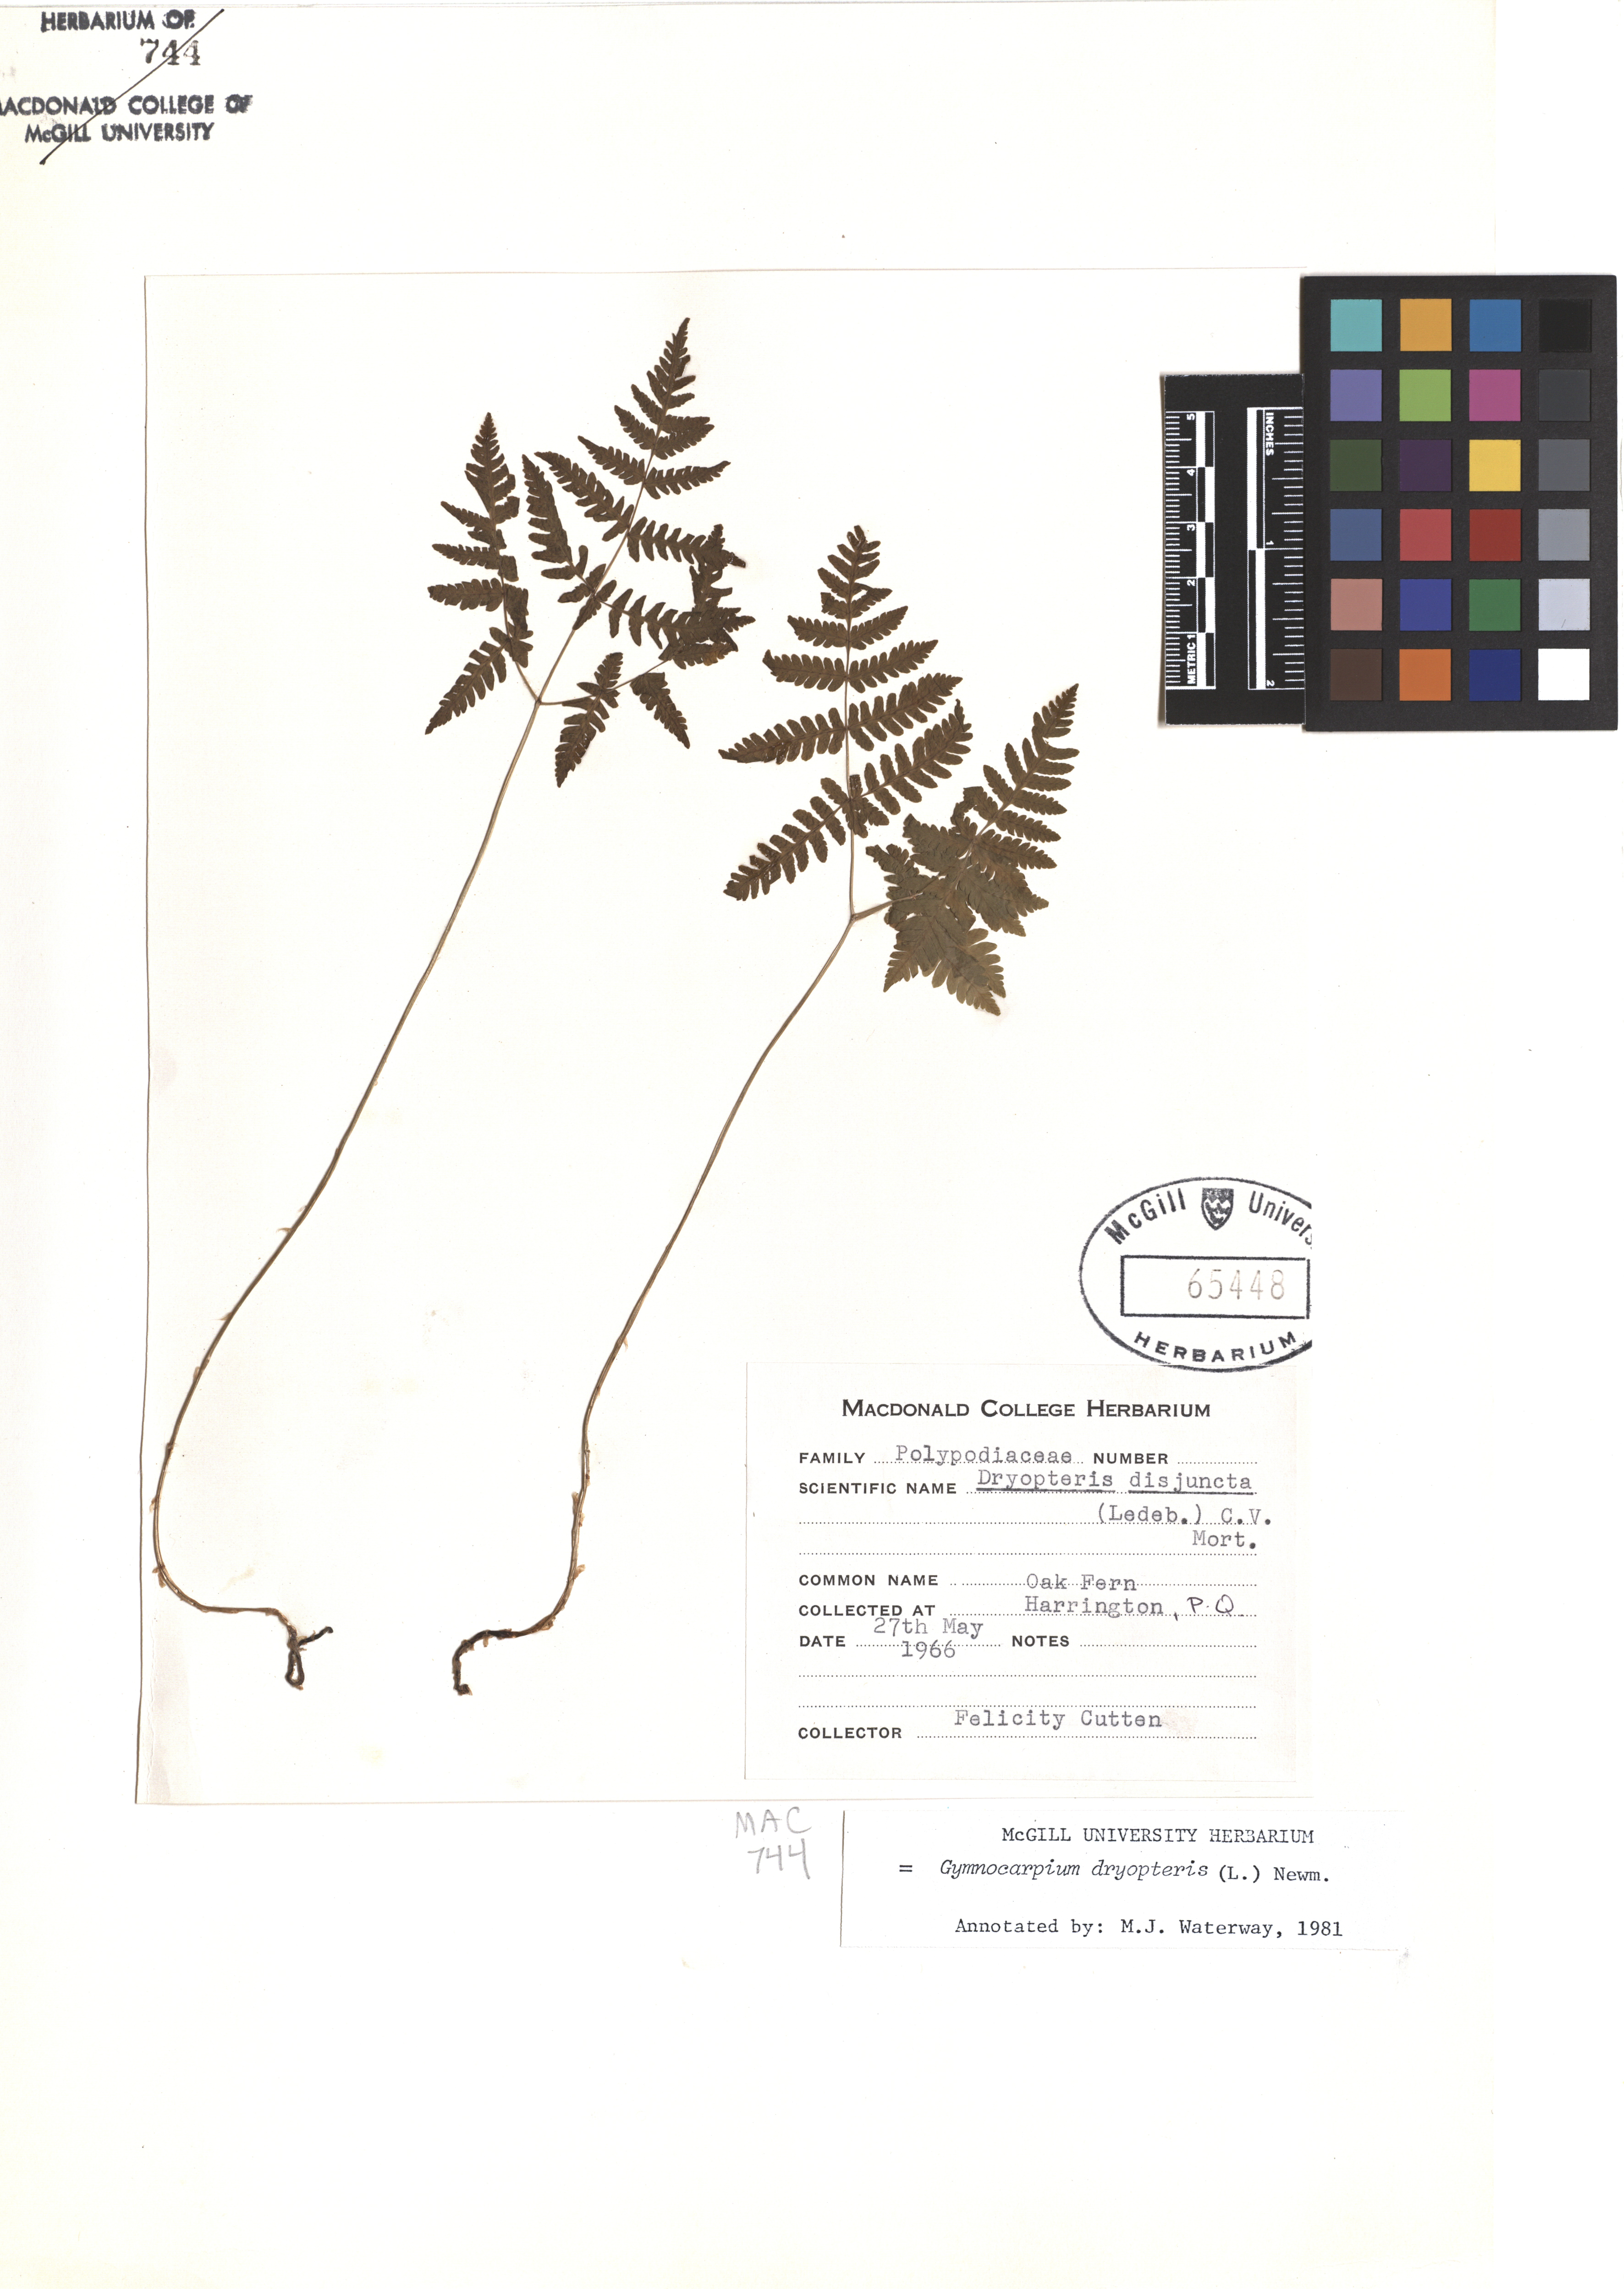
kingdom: Plantae
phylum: Tracheophyta
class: Polypodiopsida
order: Polypodiales
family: Cystopteridaceae
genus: Gymnocarpium
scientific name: Gymnocarpium dryopteris
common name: Oak fern
